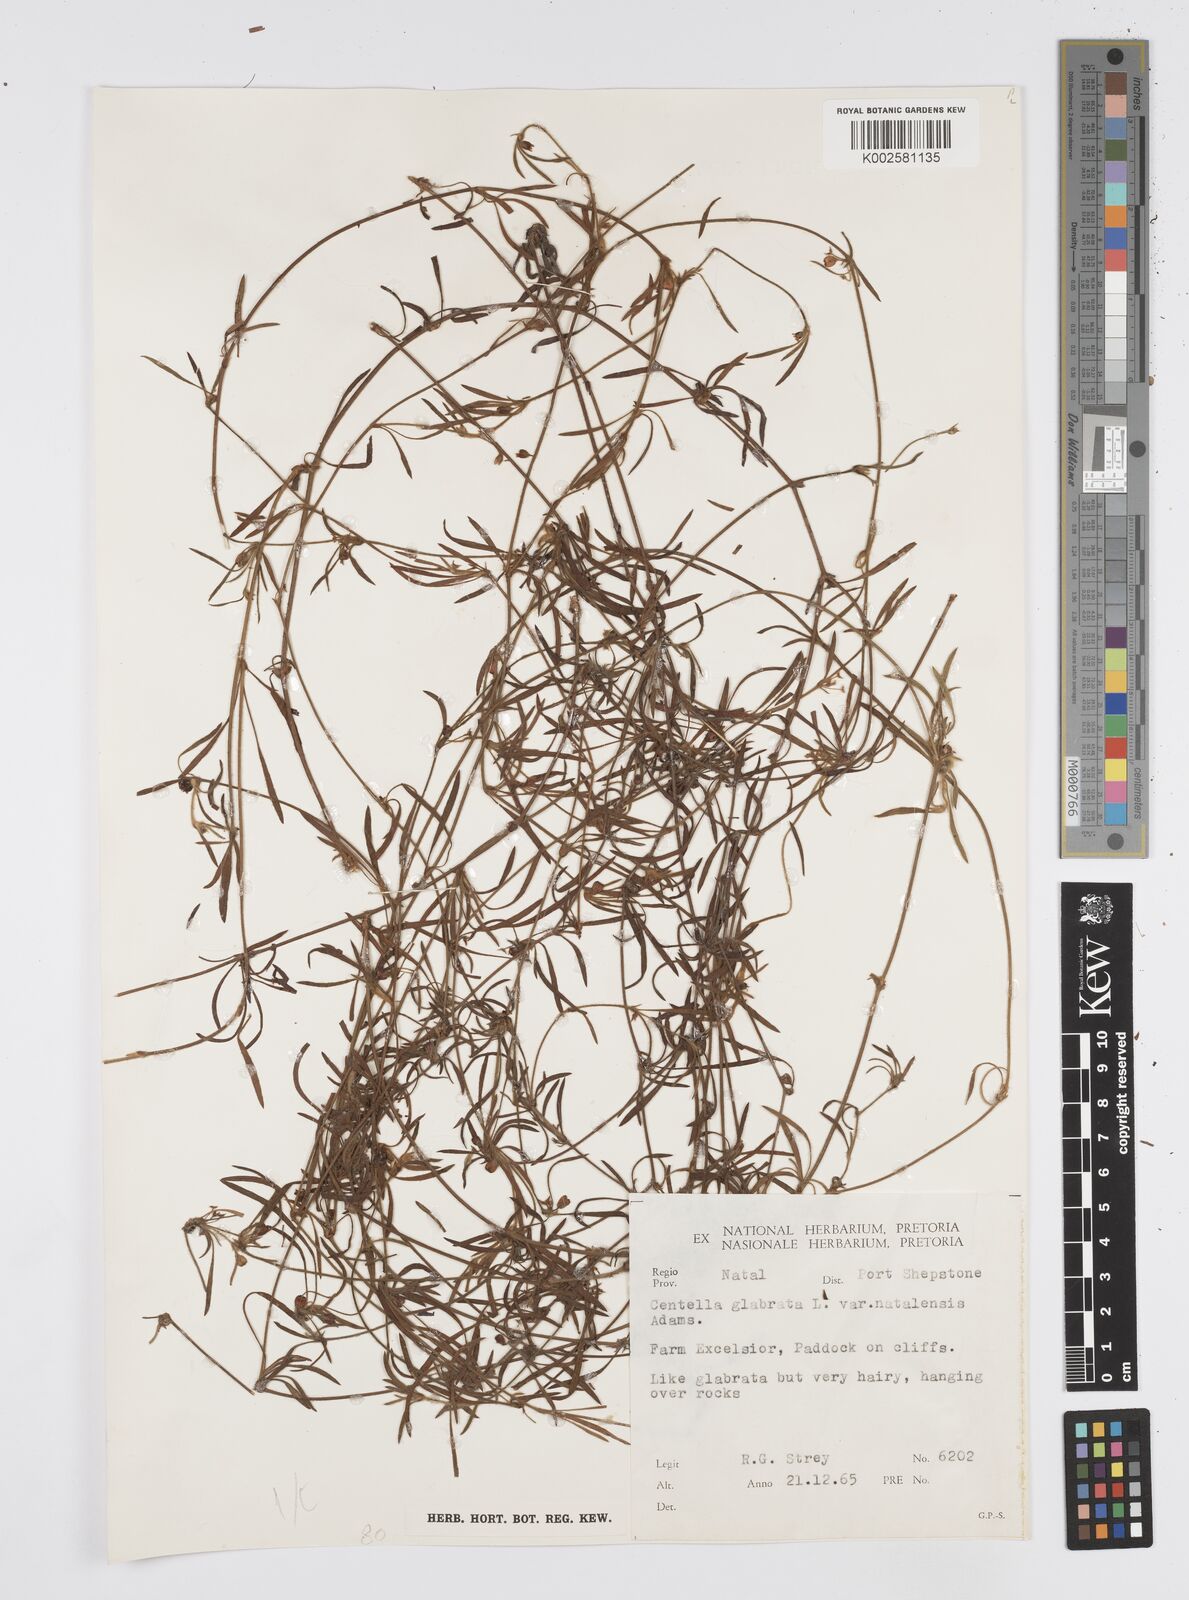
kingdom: Plantae
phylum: Tracheophyta
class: Magnoliopsida
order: Apiales
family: Apiaceae
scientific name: Apiaceae
